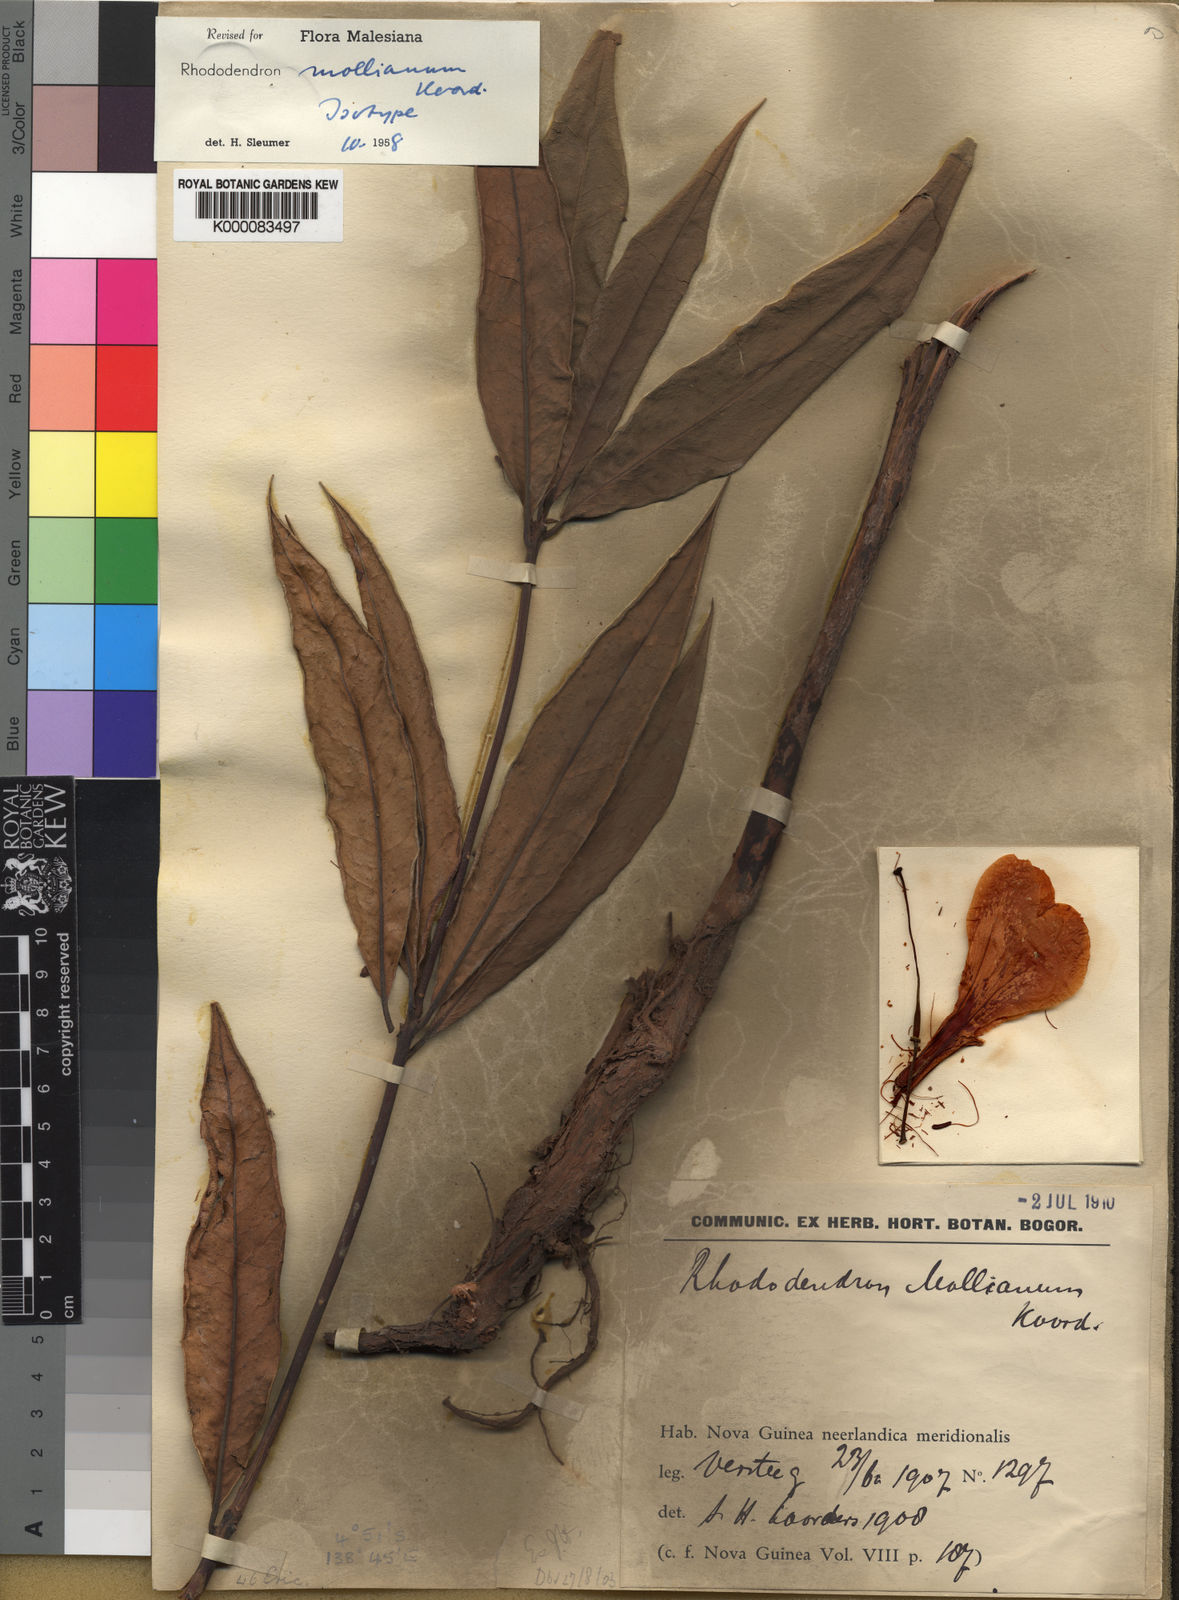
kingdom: Plantae
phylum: Tracheophyta
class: Magnoliopsida
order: Ericales
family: Ericaceae
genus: Rhododendron
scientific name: Rhododendron mollianum
